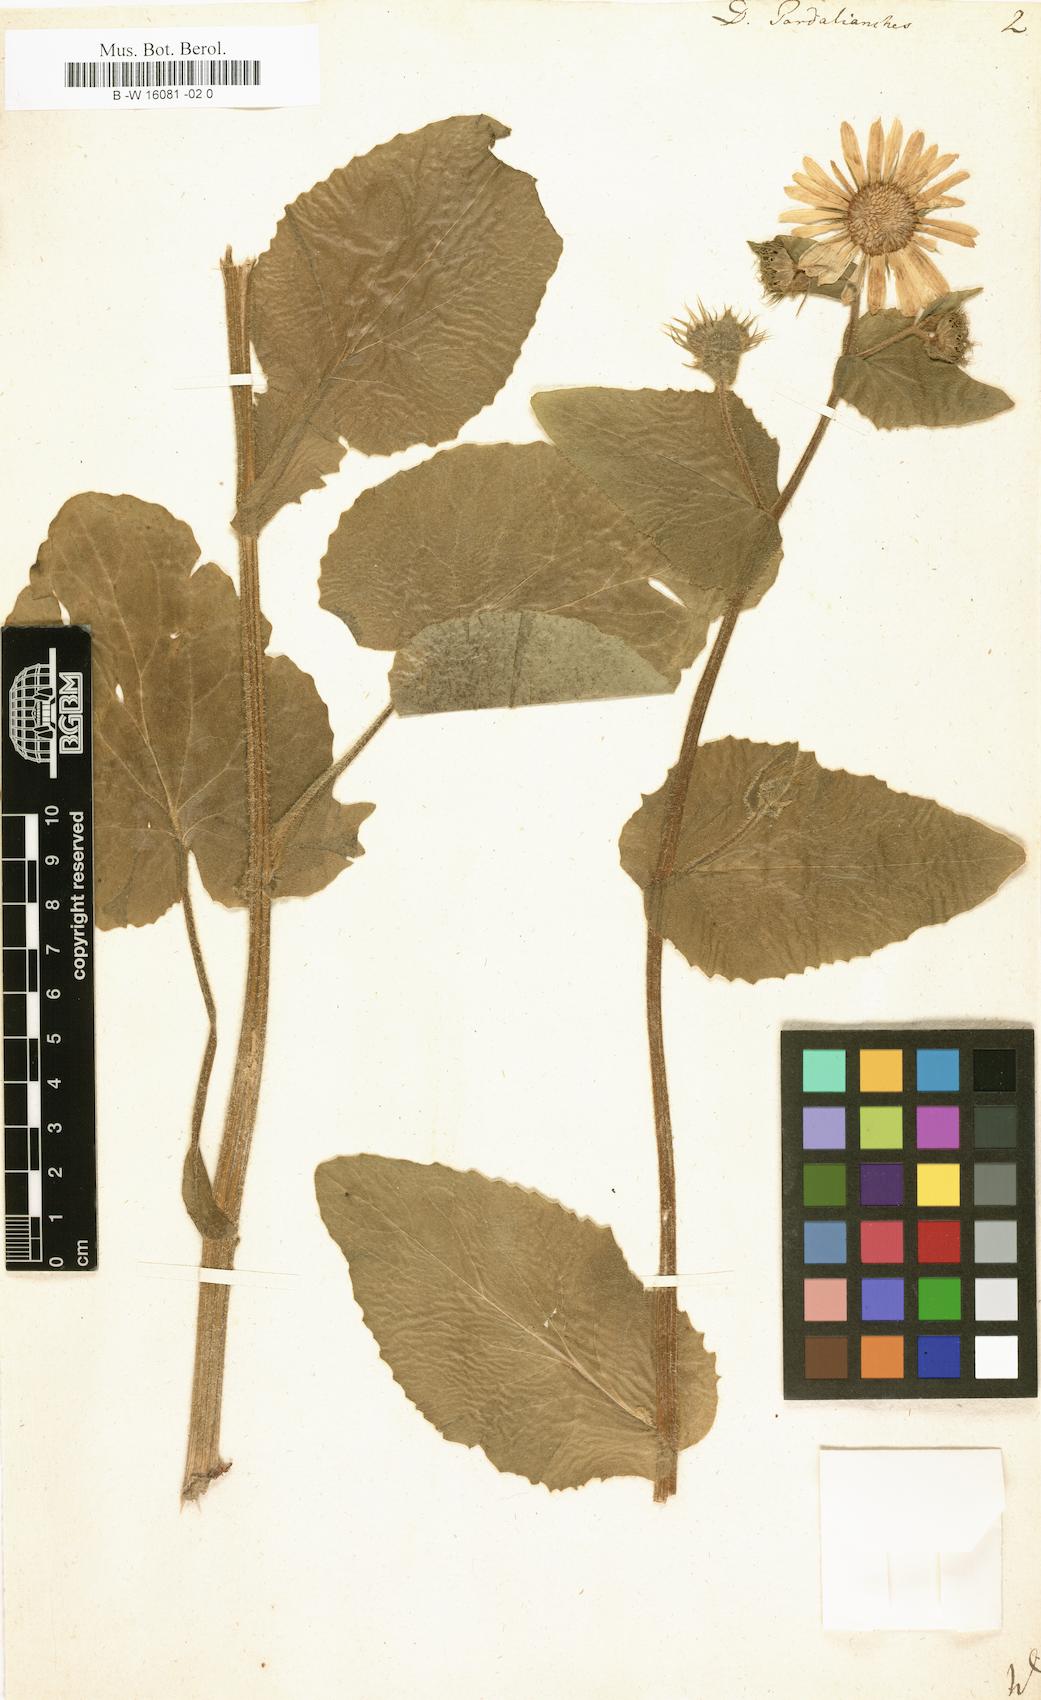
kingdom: Plantae
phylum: Tracheophyta
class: Magnoliopsida
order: Asterales
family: Asteraceae
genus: Doronicum
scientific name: Doronicum pardalianches
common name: Leopard's-bane
